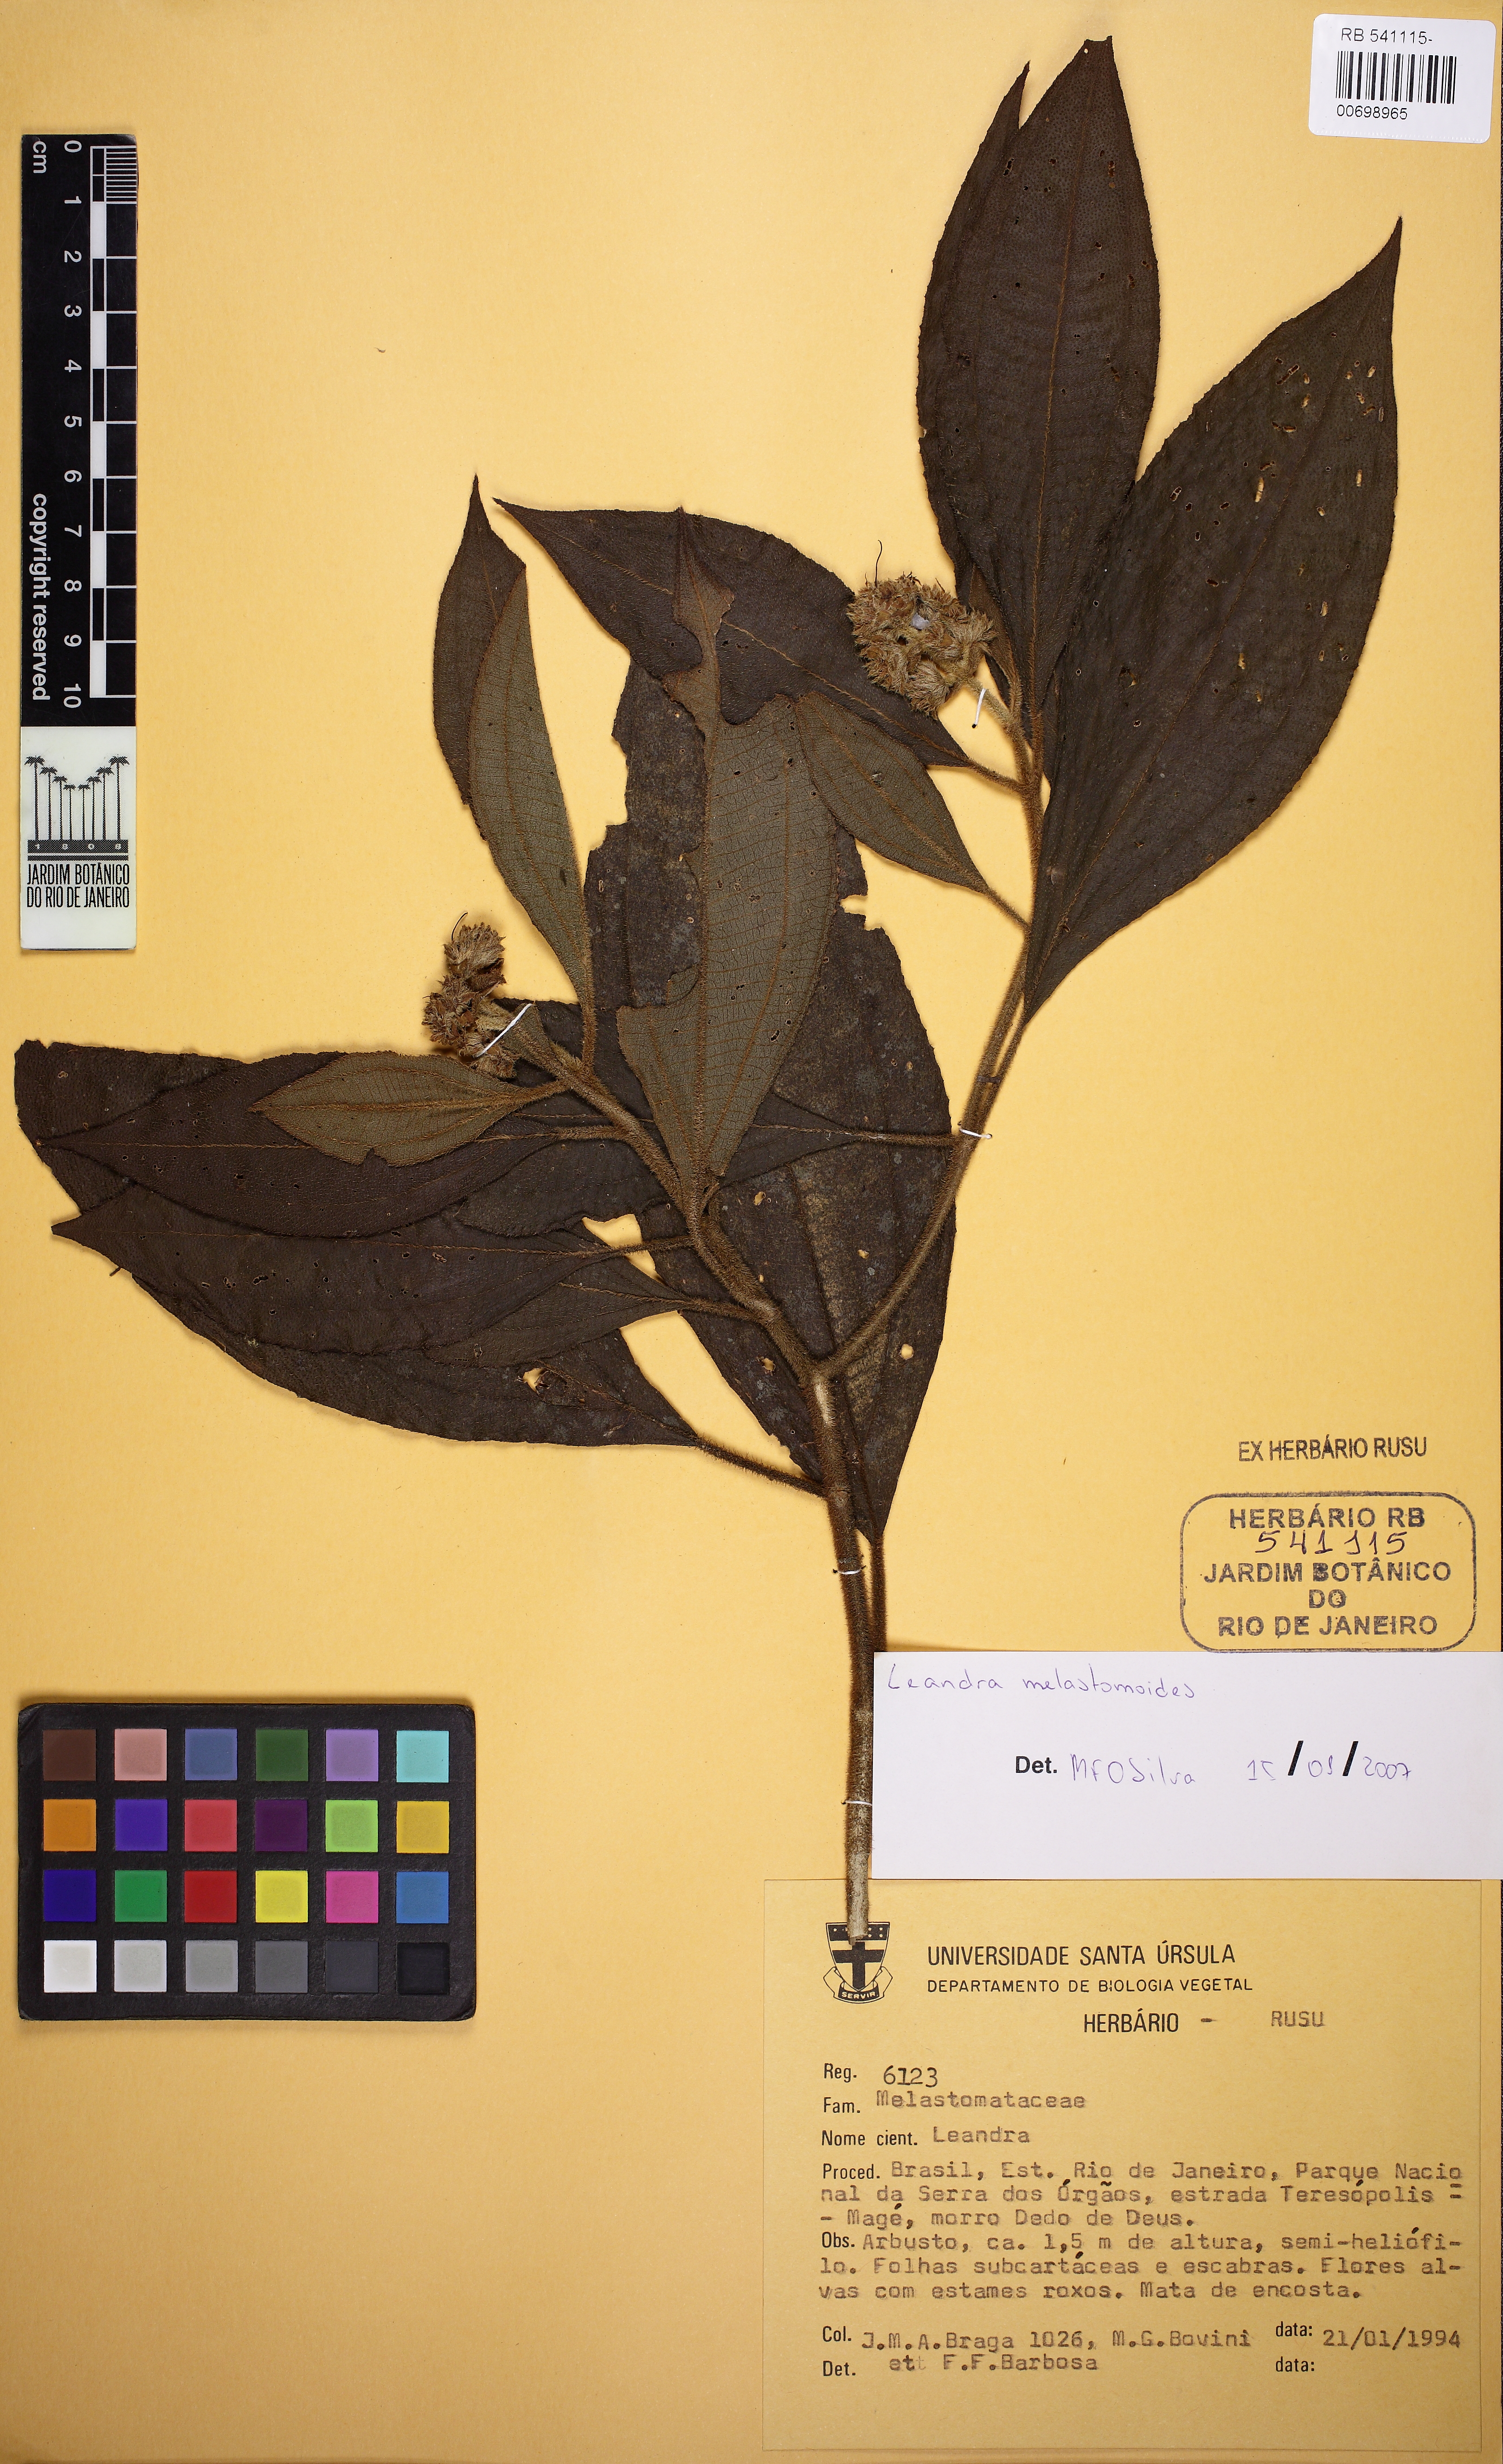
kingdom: Plantae
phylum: Tracheophyta
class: Magnoliopsida
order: Myrtales
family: Melastomataceae
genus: Miconia
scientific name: Miconia melastomoides
